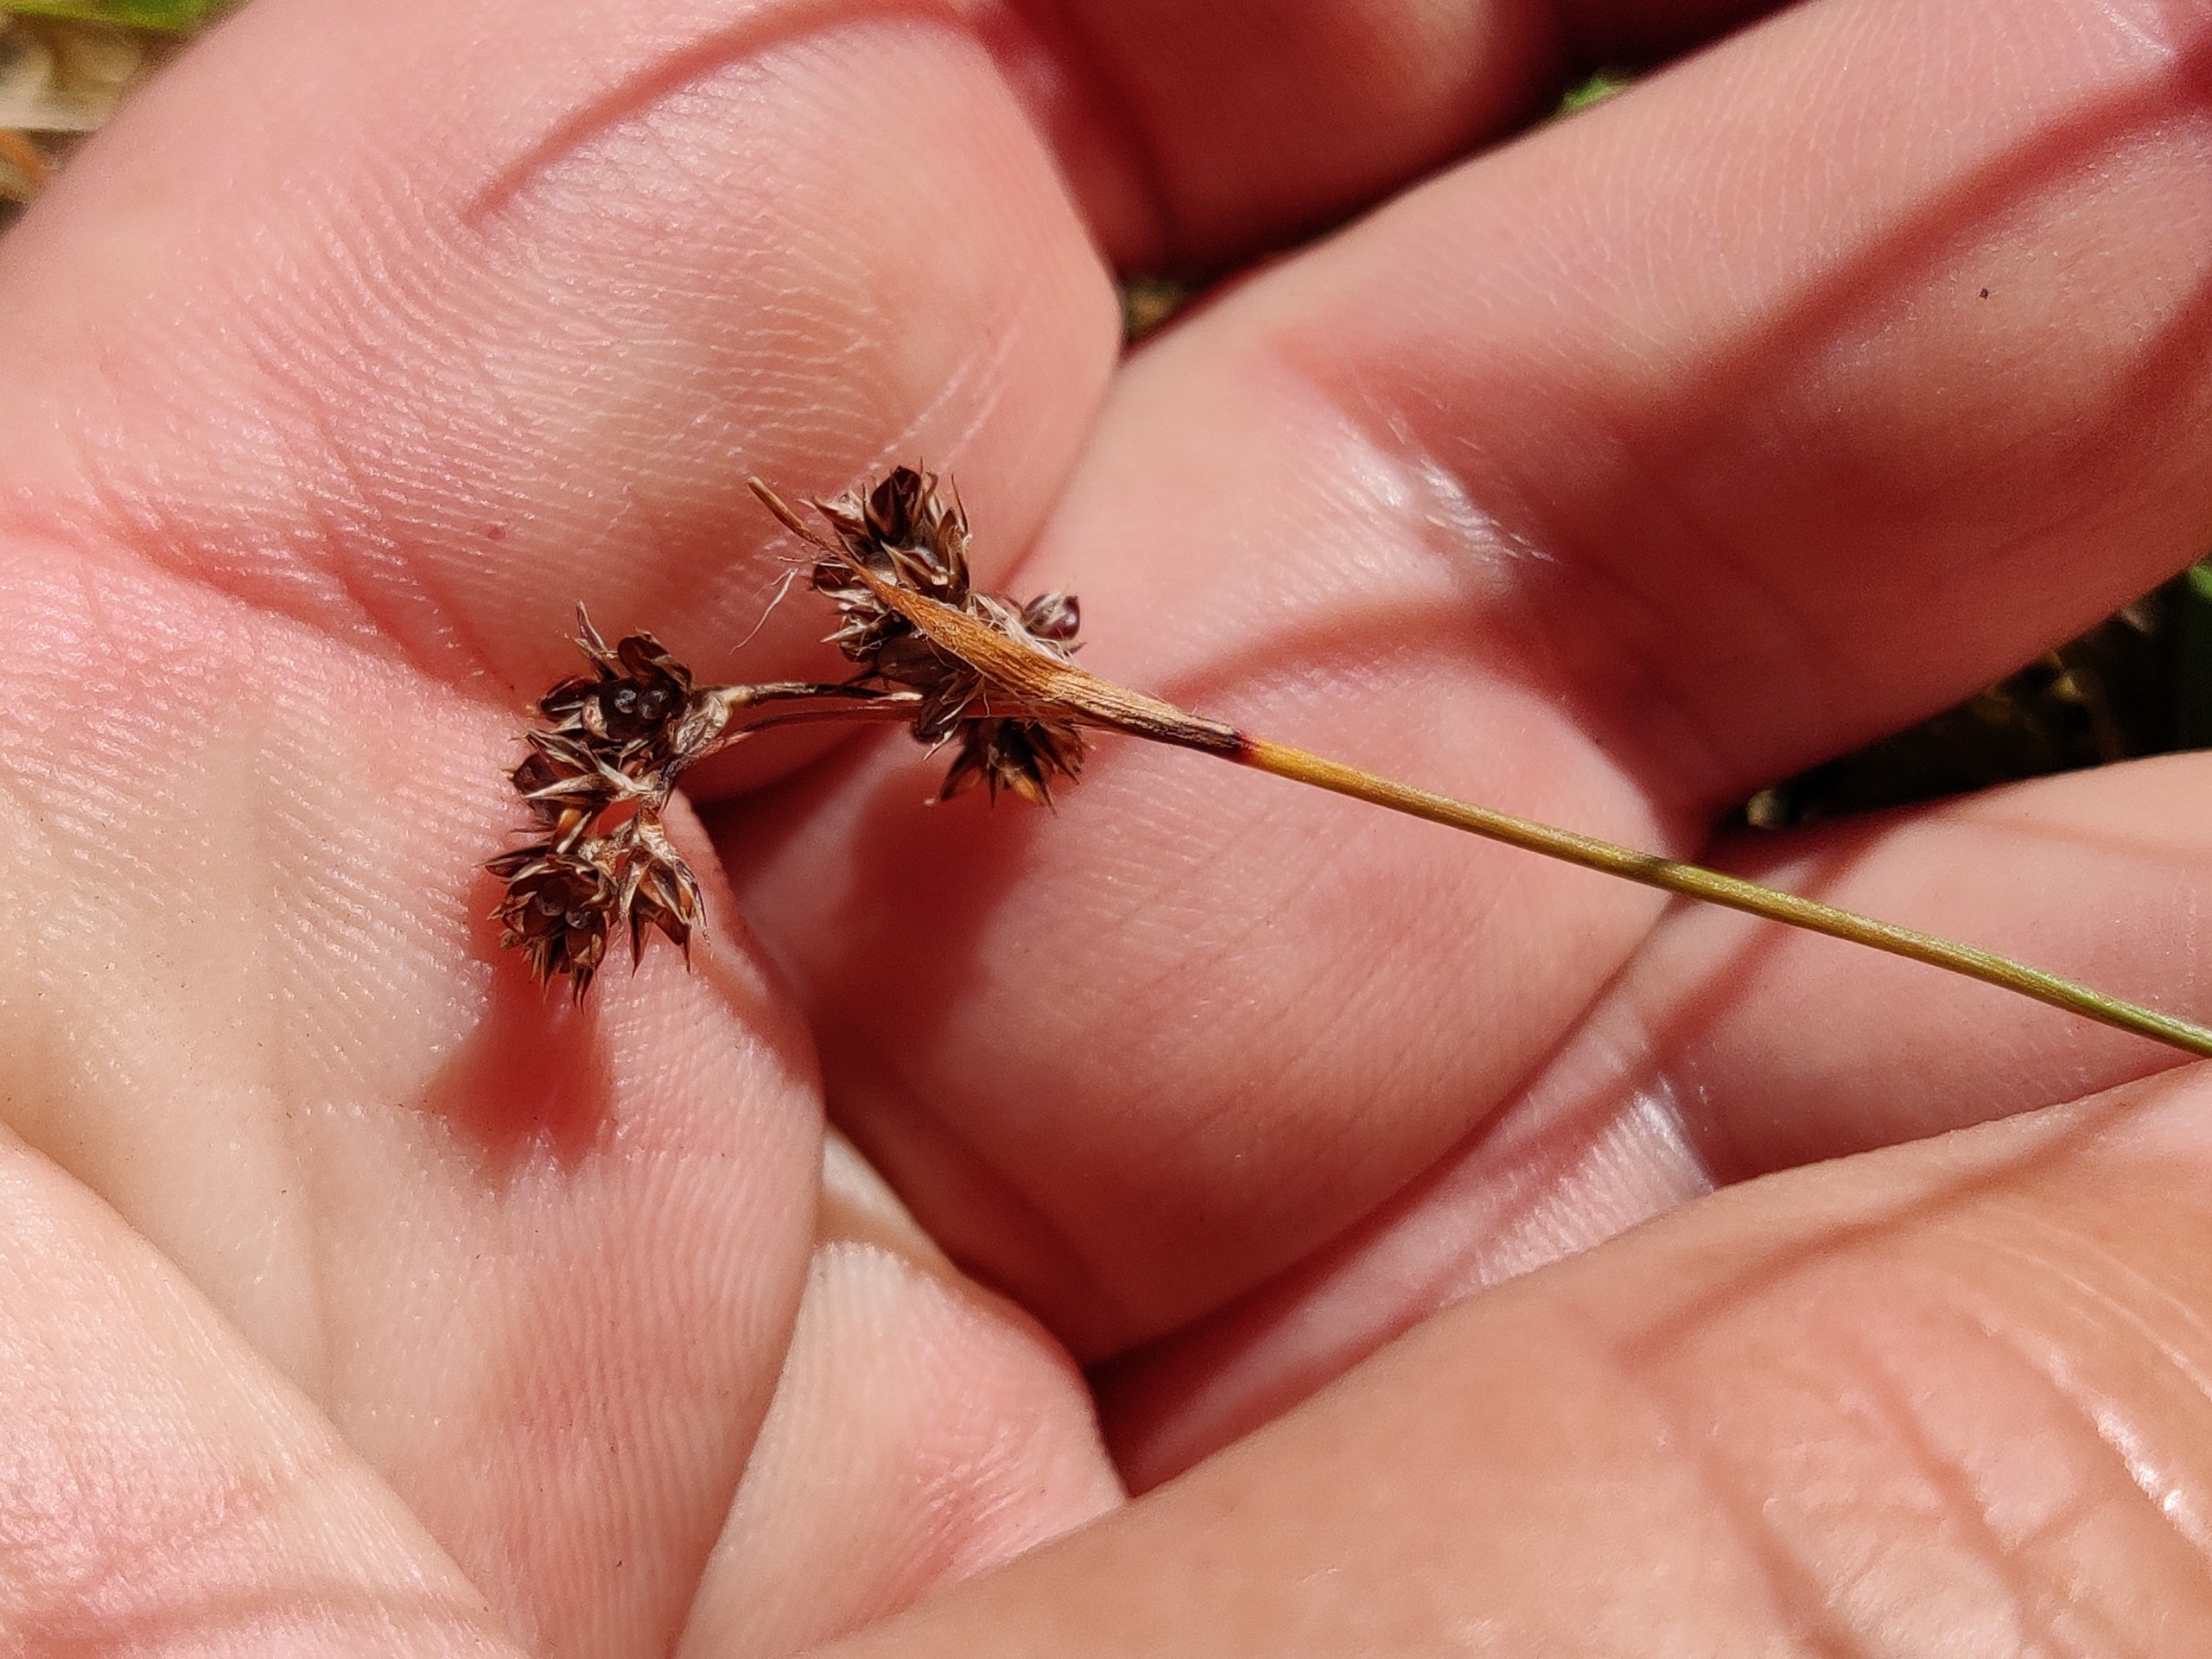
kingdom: Plantae
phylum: Tracheophyta
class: Liliopsida
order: Poales
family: Juncaceae
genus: Luzula
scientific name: Luzula campestris
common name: Mark-frytle
